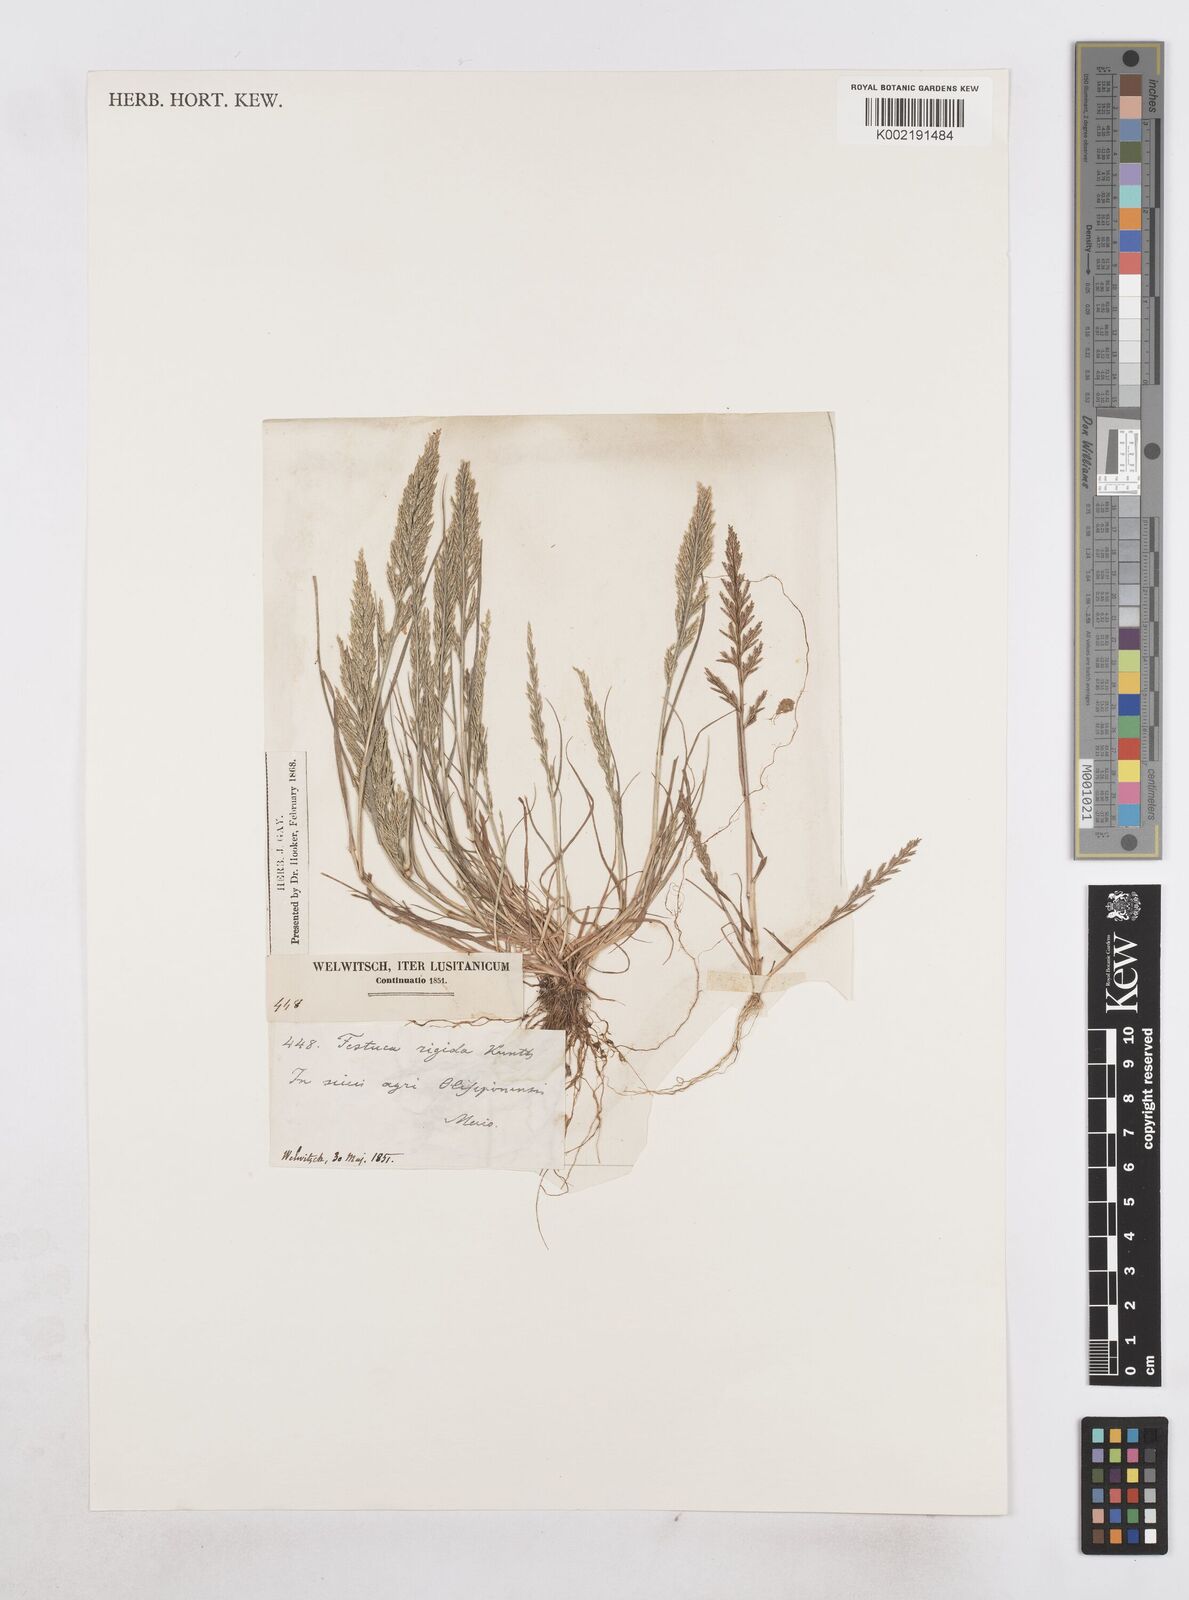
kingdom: Plantae
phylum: Tracheophyta
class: Liliopsida
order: Poales
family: Poaceae
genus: Catapodium
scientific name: Catapodium rigidum
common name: Fern-grass
